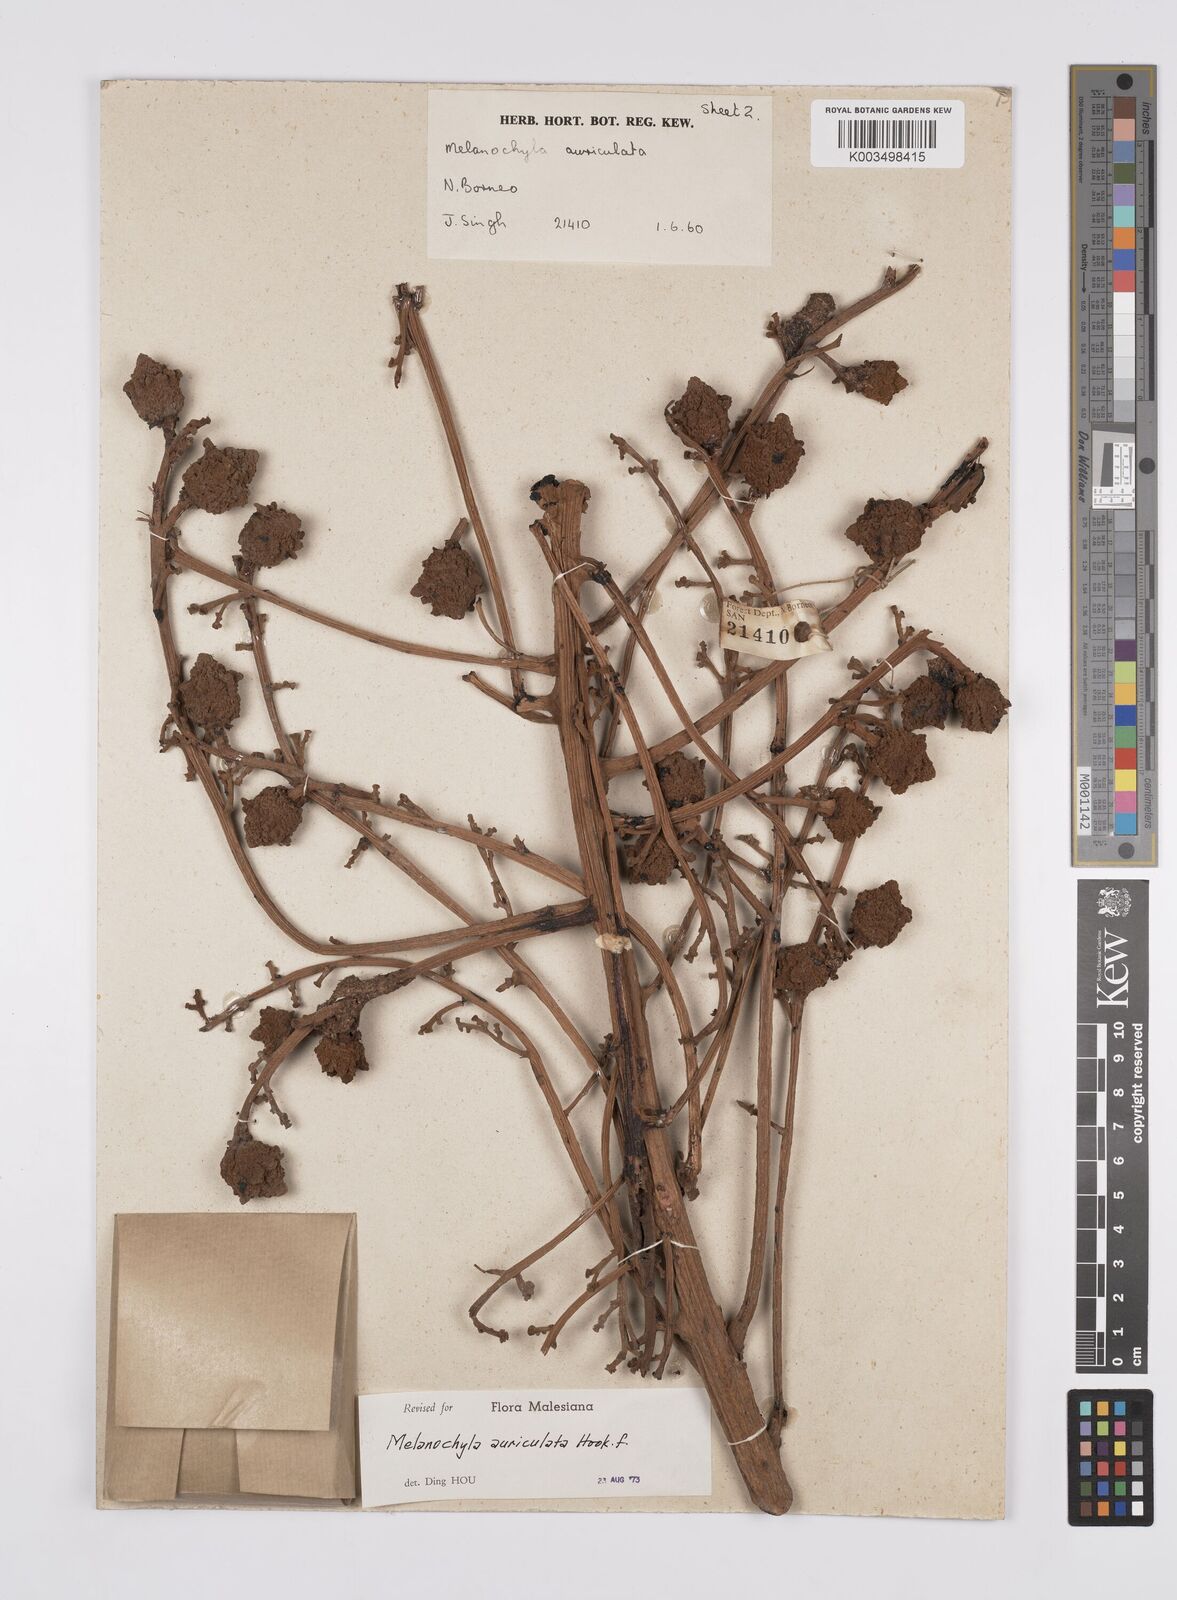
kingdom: Plantae
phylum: Tracheophyta
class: Magnoliopsida
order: Sapindales
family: Anacardiaceae
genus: Melanochyla
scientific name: Melanochyla auriculata
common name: Swamp rengas
